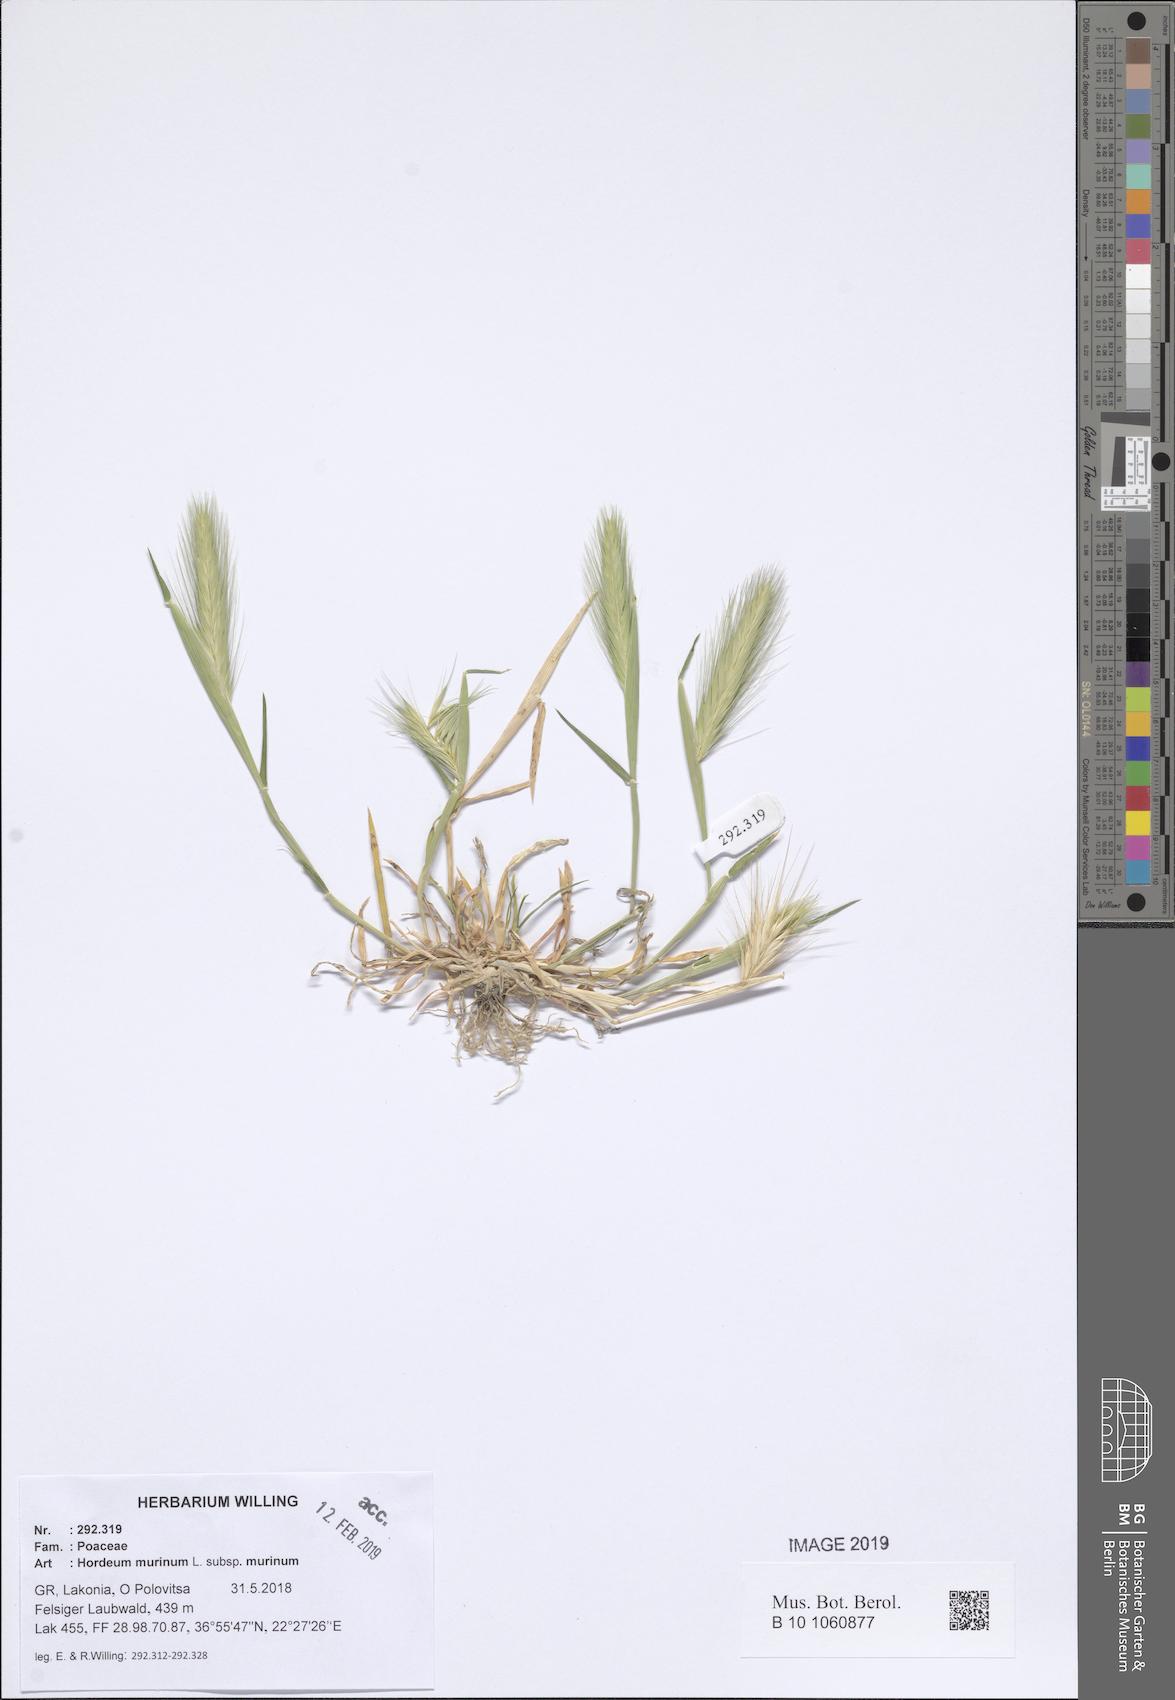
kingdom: Plantae
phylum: Tracheophyta
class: Liliopsida
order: Poales
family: Poaceae
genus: Hordeum
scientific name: Hordeum murinum
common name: Wall barley
